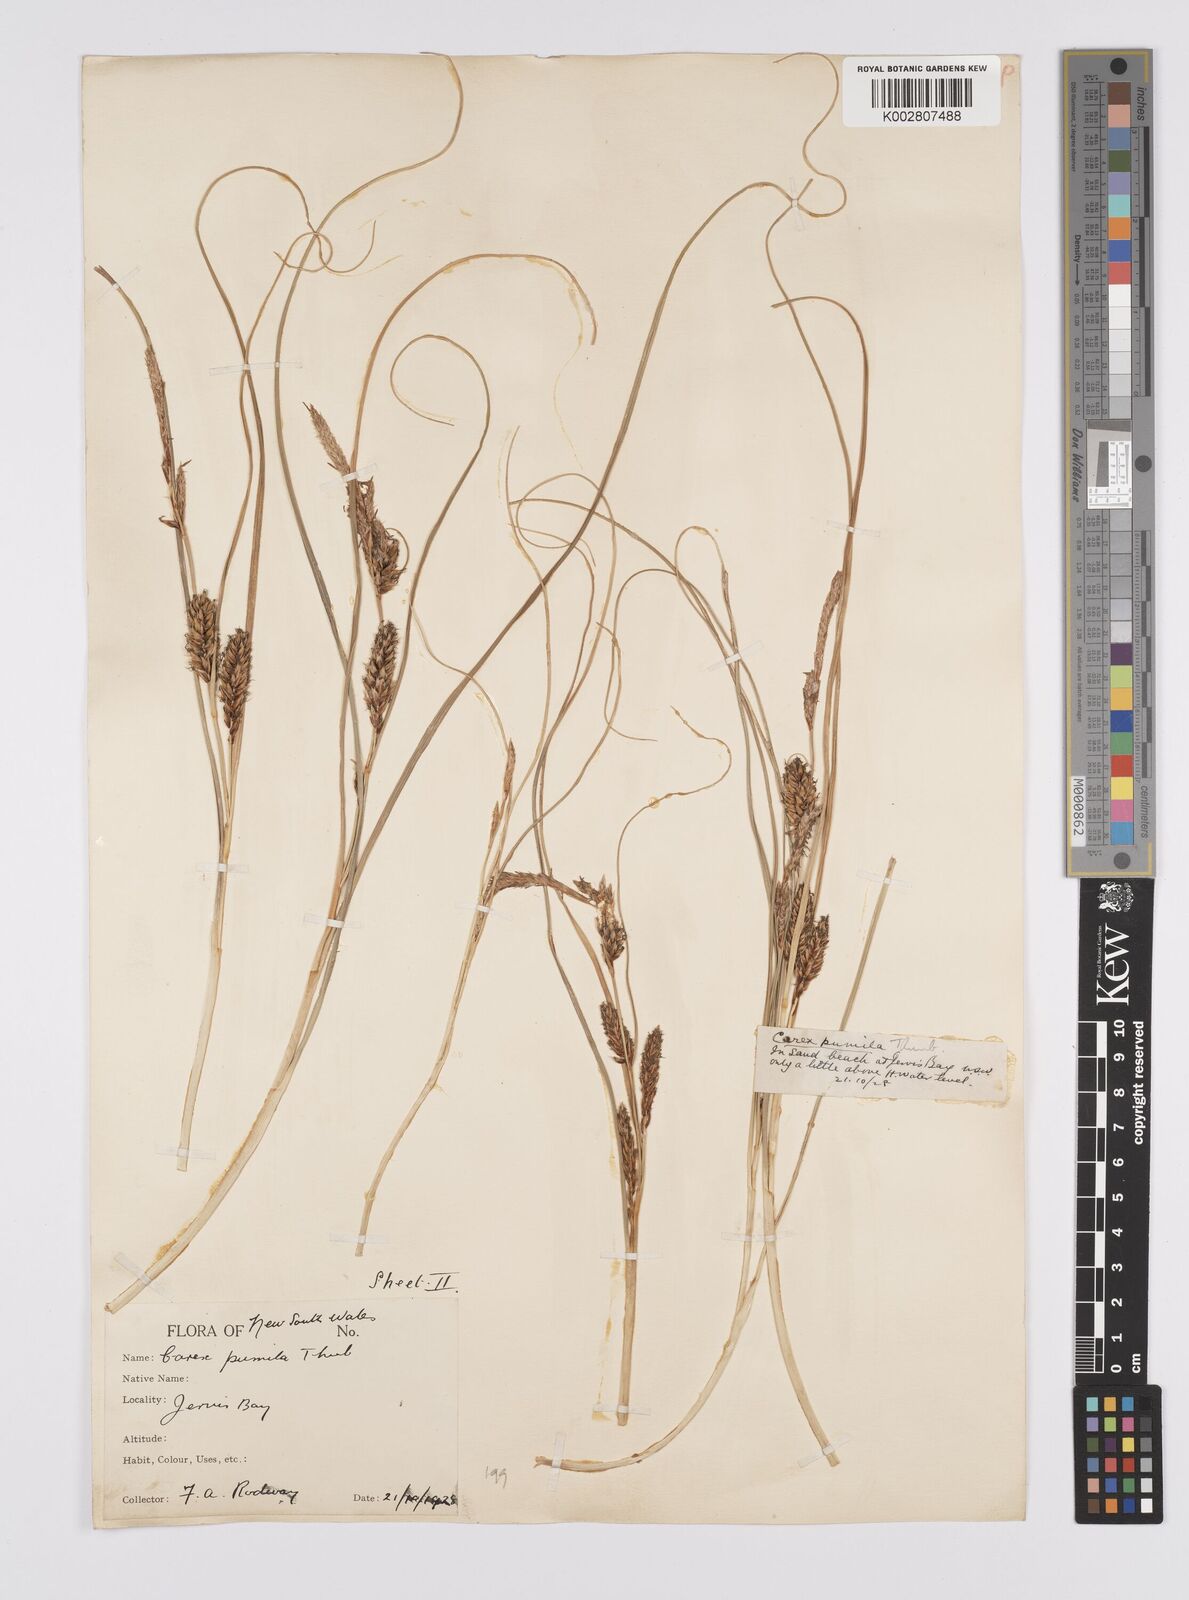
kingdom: Plantae
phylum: Tracheophyta
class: Liliopsida
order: Poales
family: Cyperaceae
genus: Carex
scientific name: Carex pumila
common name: Dwarf sedge
